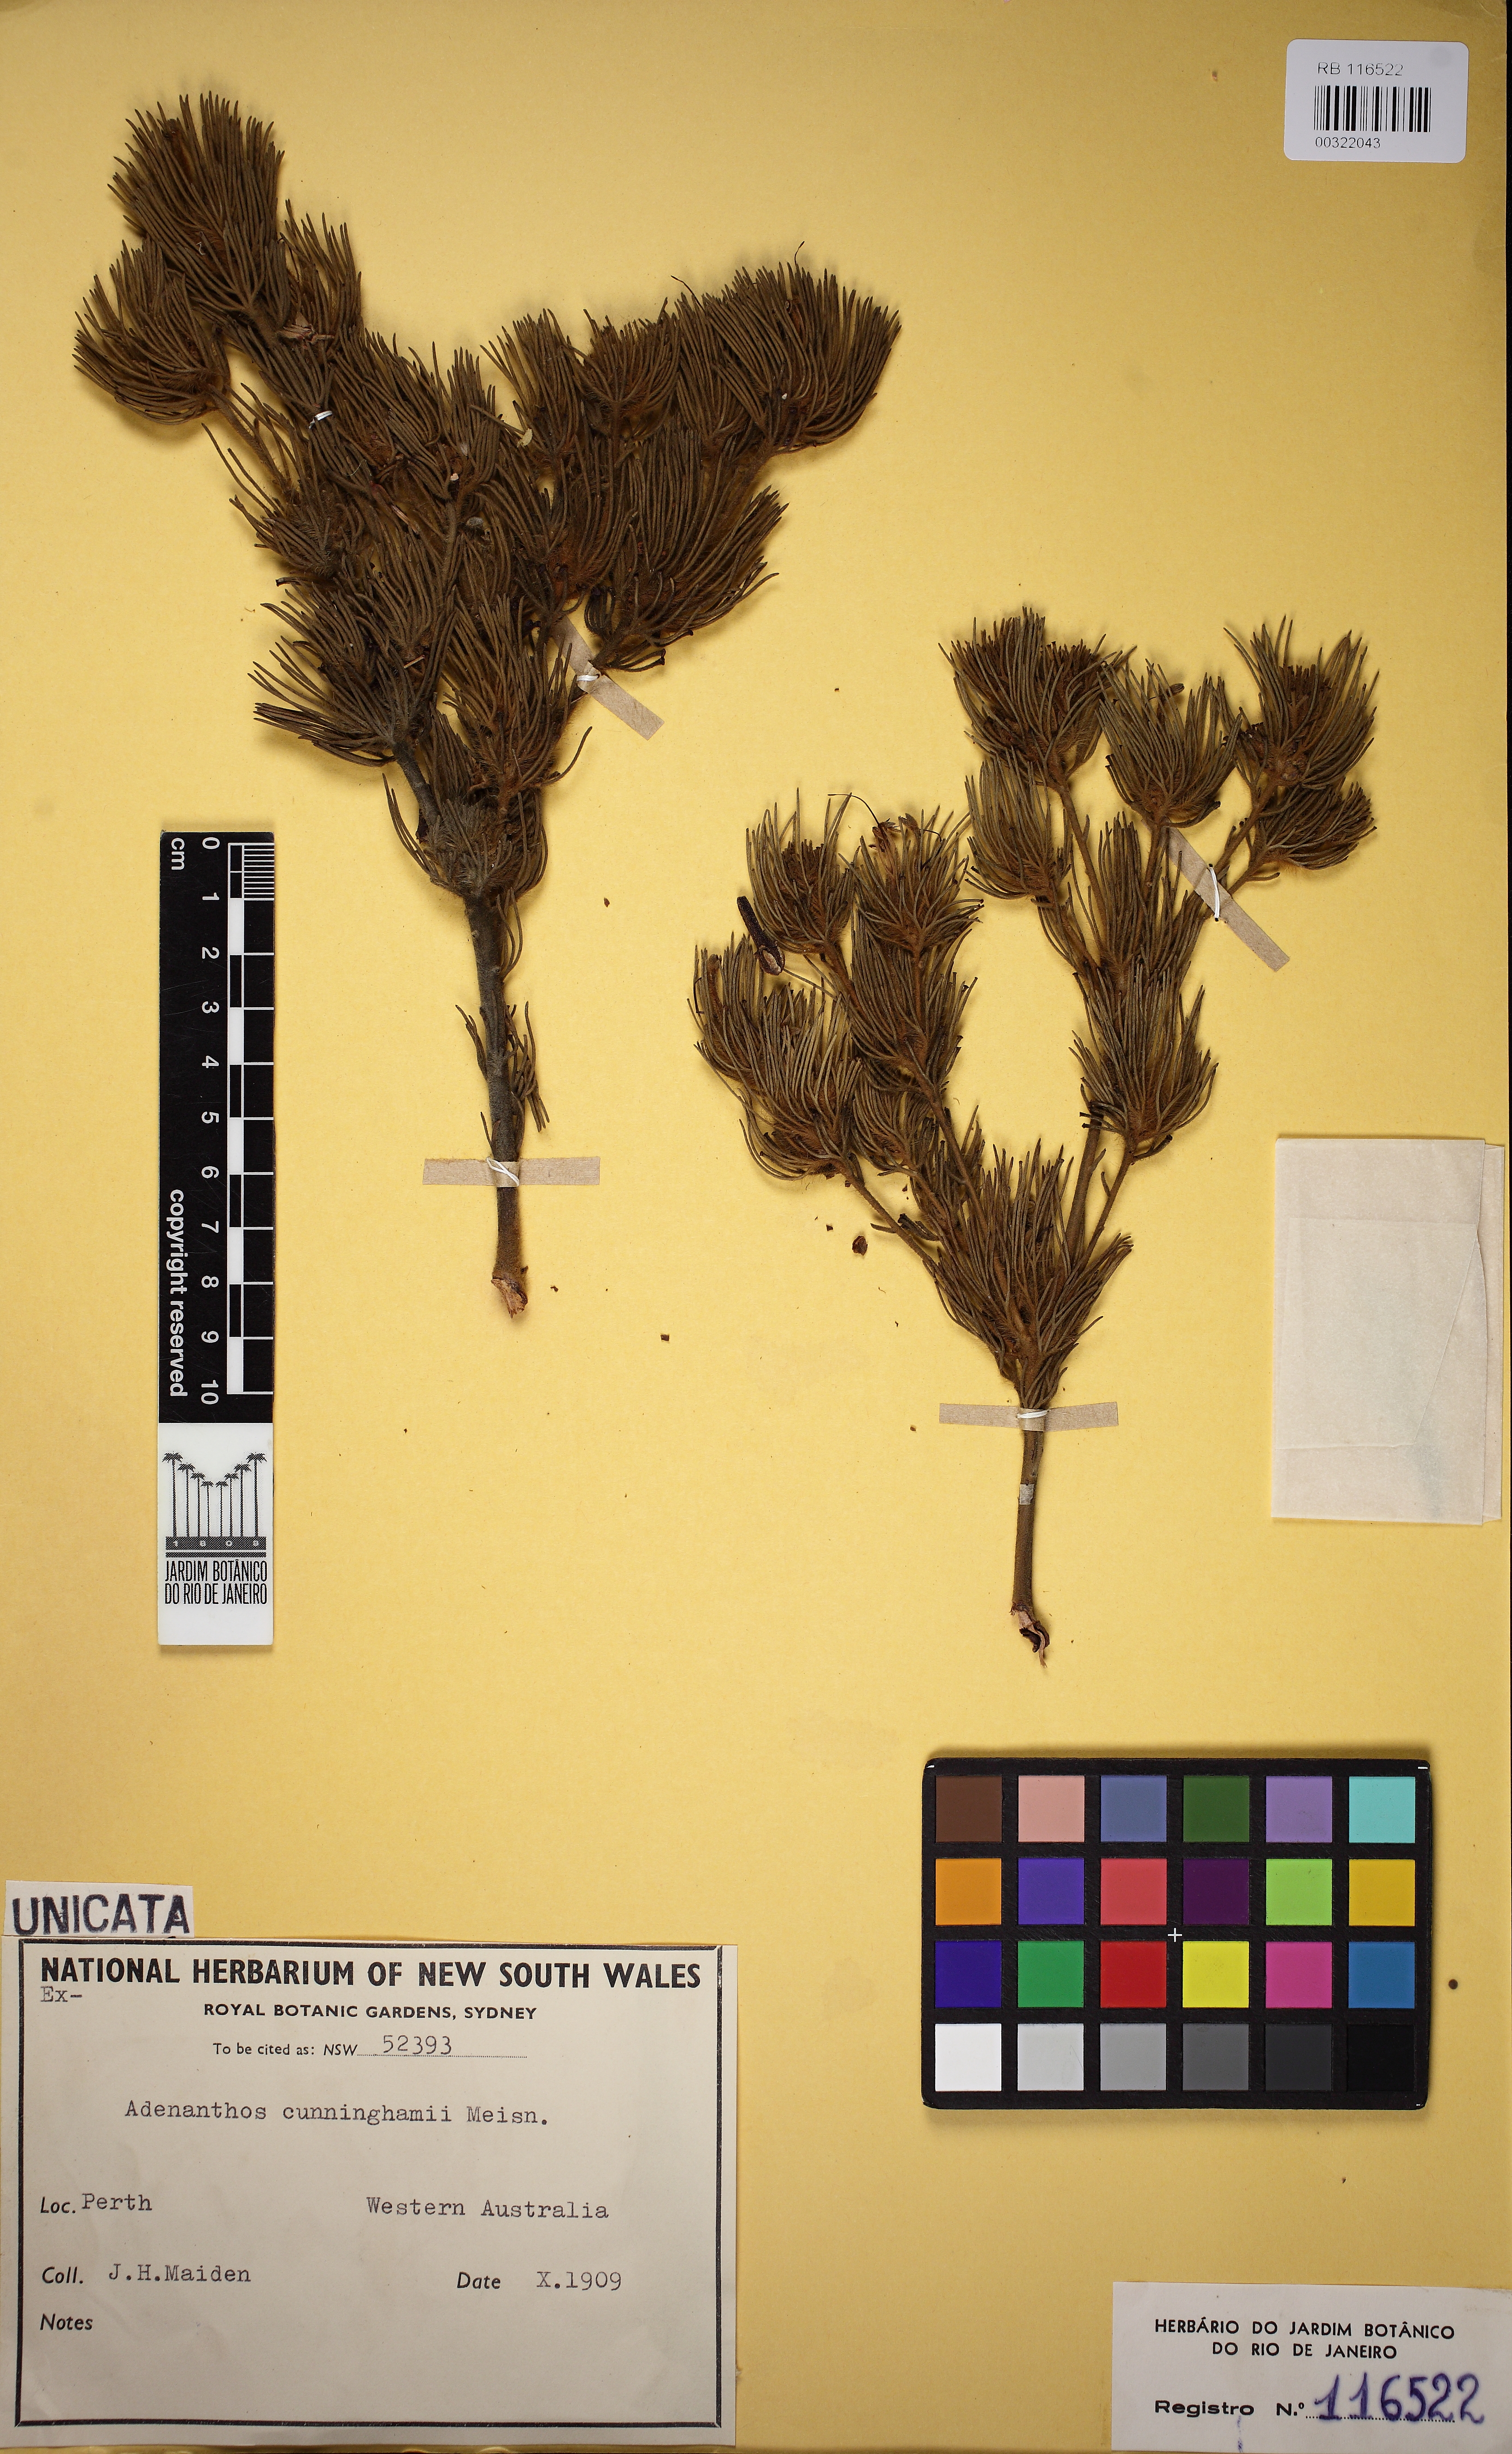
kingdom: Plantae
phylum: Tracheophyta
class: Magnoliopsida
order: Proteales
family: Proteaceae
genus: Adenanthos
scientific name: Adenanthos cunninghamii
